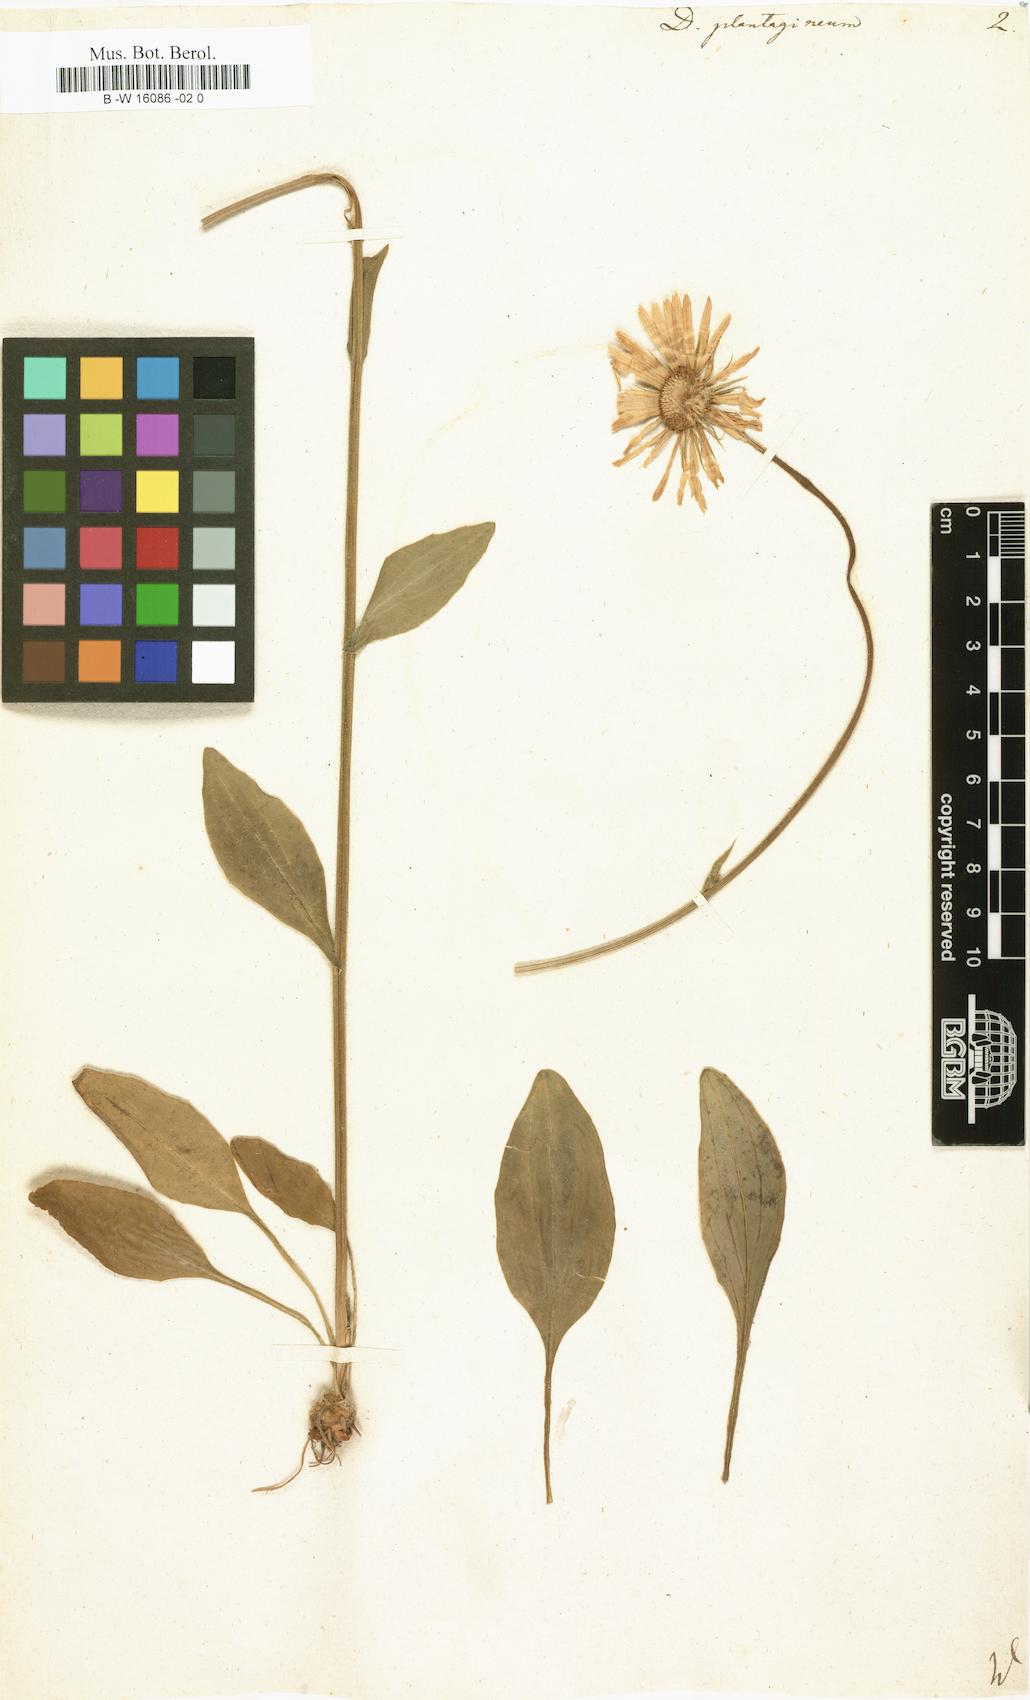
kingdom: Plantae
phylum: Tracheophyta
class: Magnoliopsida
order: Asterales
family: Asteraceae
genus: Doronicum
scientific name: Doronicum plantagineum
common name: Plantain-leaved leopard's-bane
